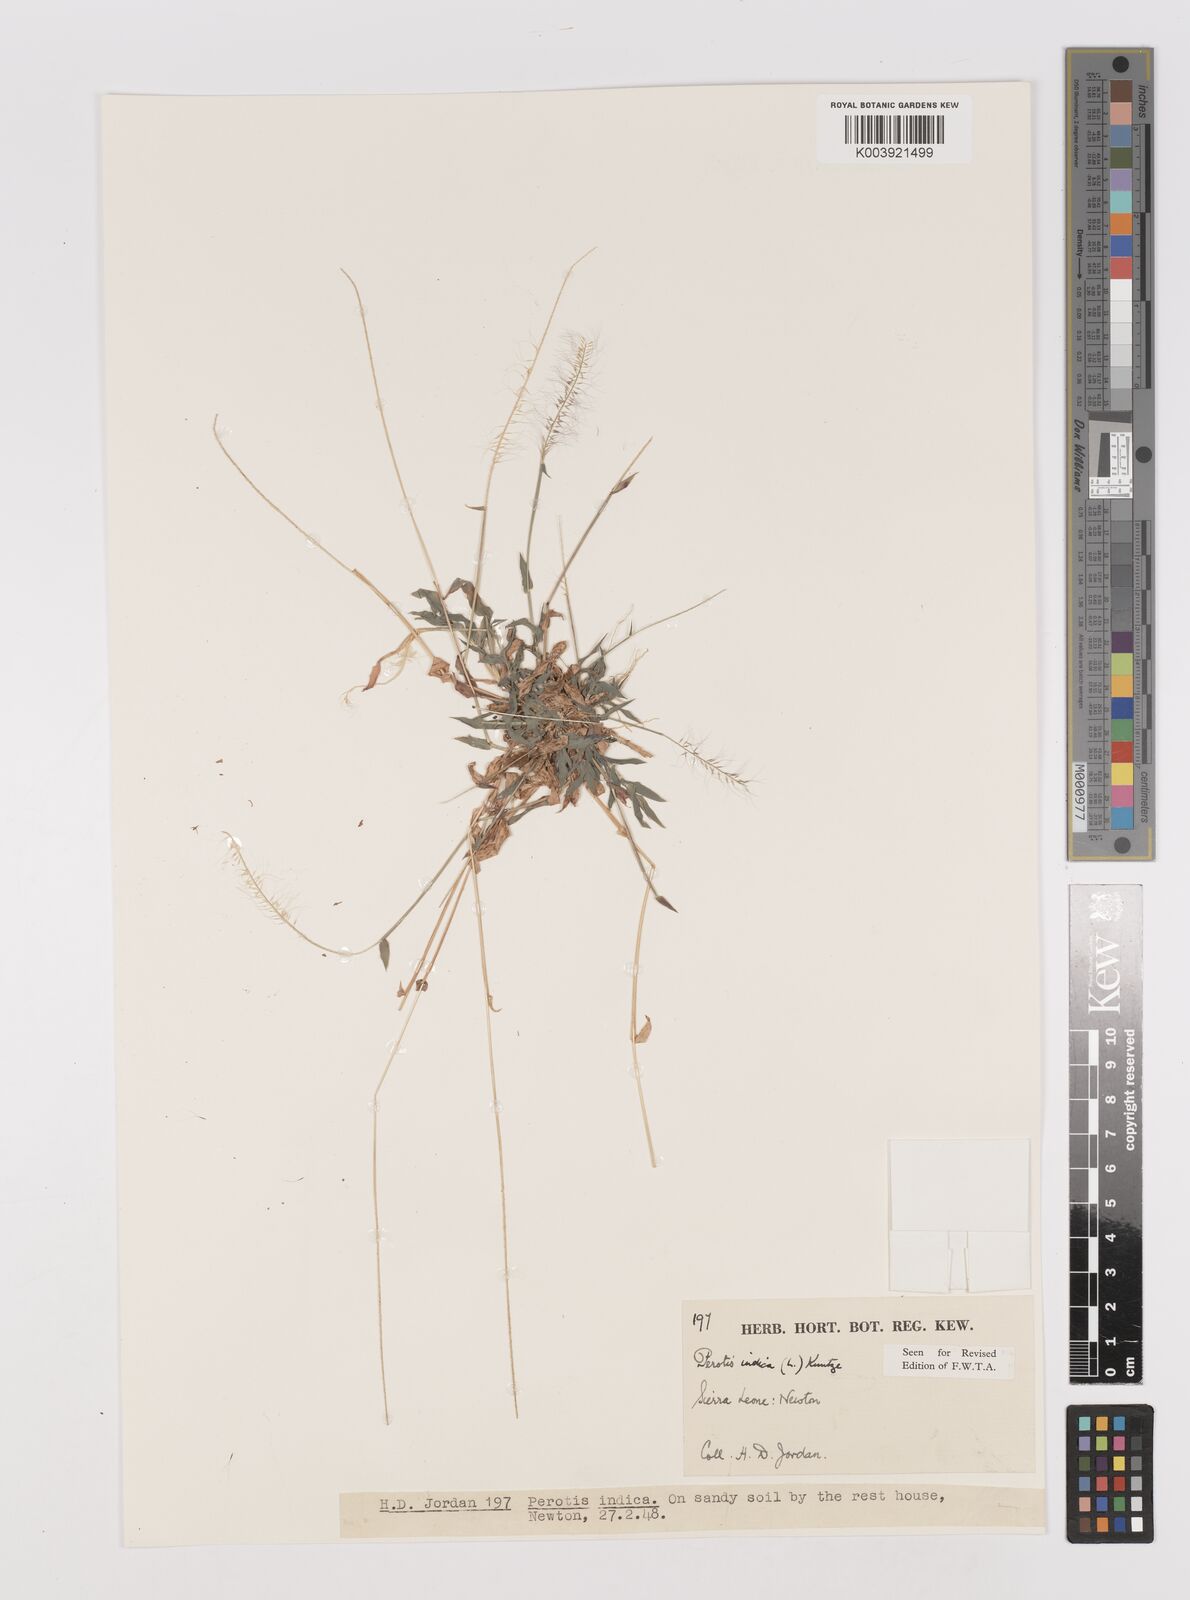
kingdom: Plantae
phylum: Tracheophyta
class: Liliopsida
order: Poales
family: Poaceae
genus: Perotis
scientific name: Perotis indica
